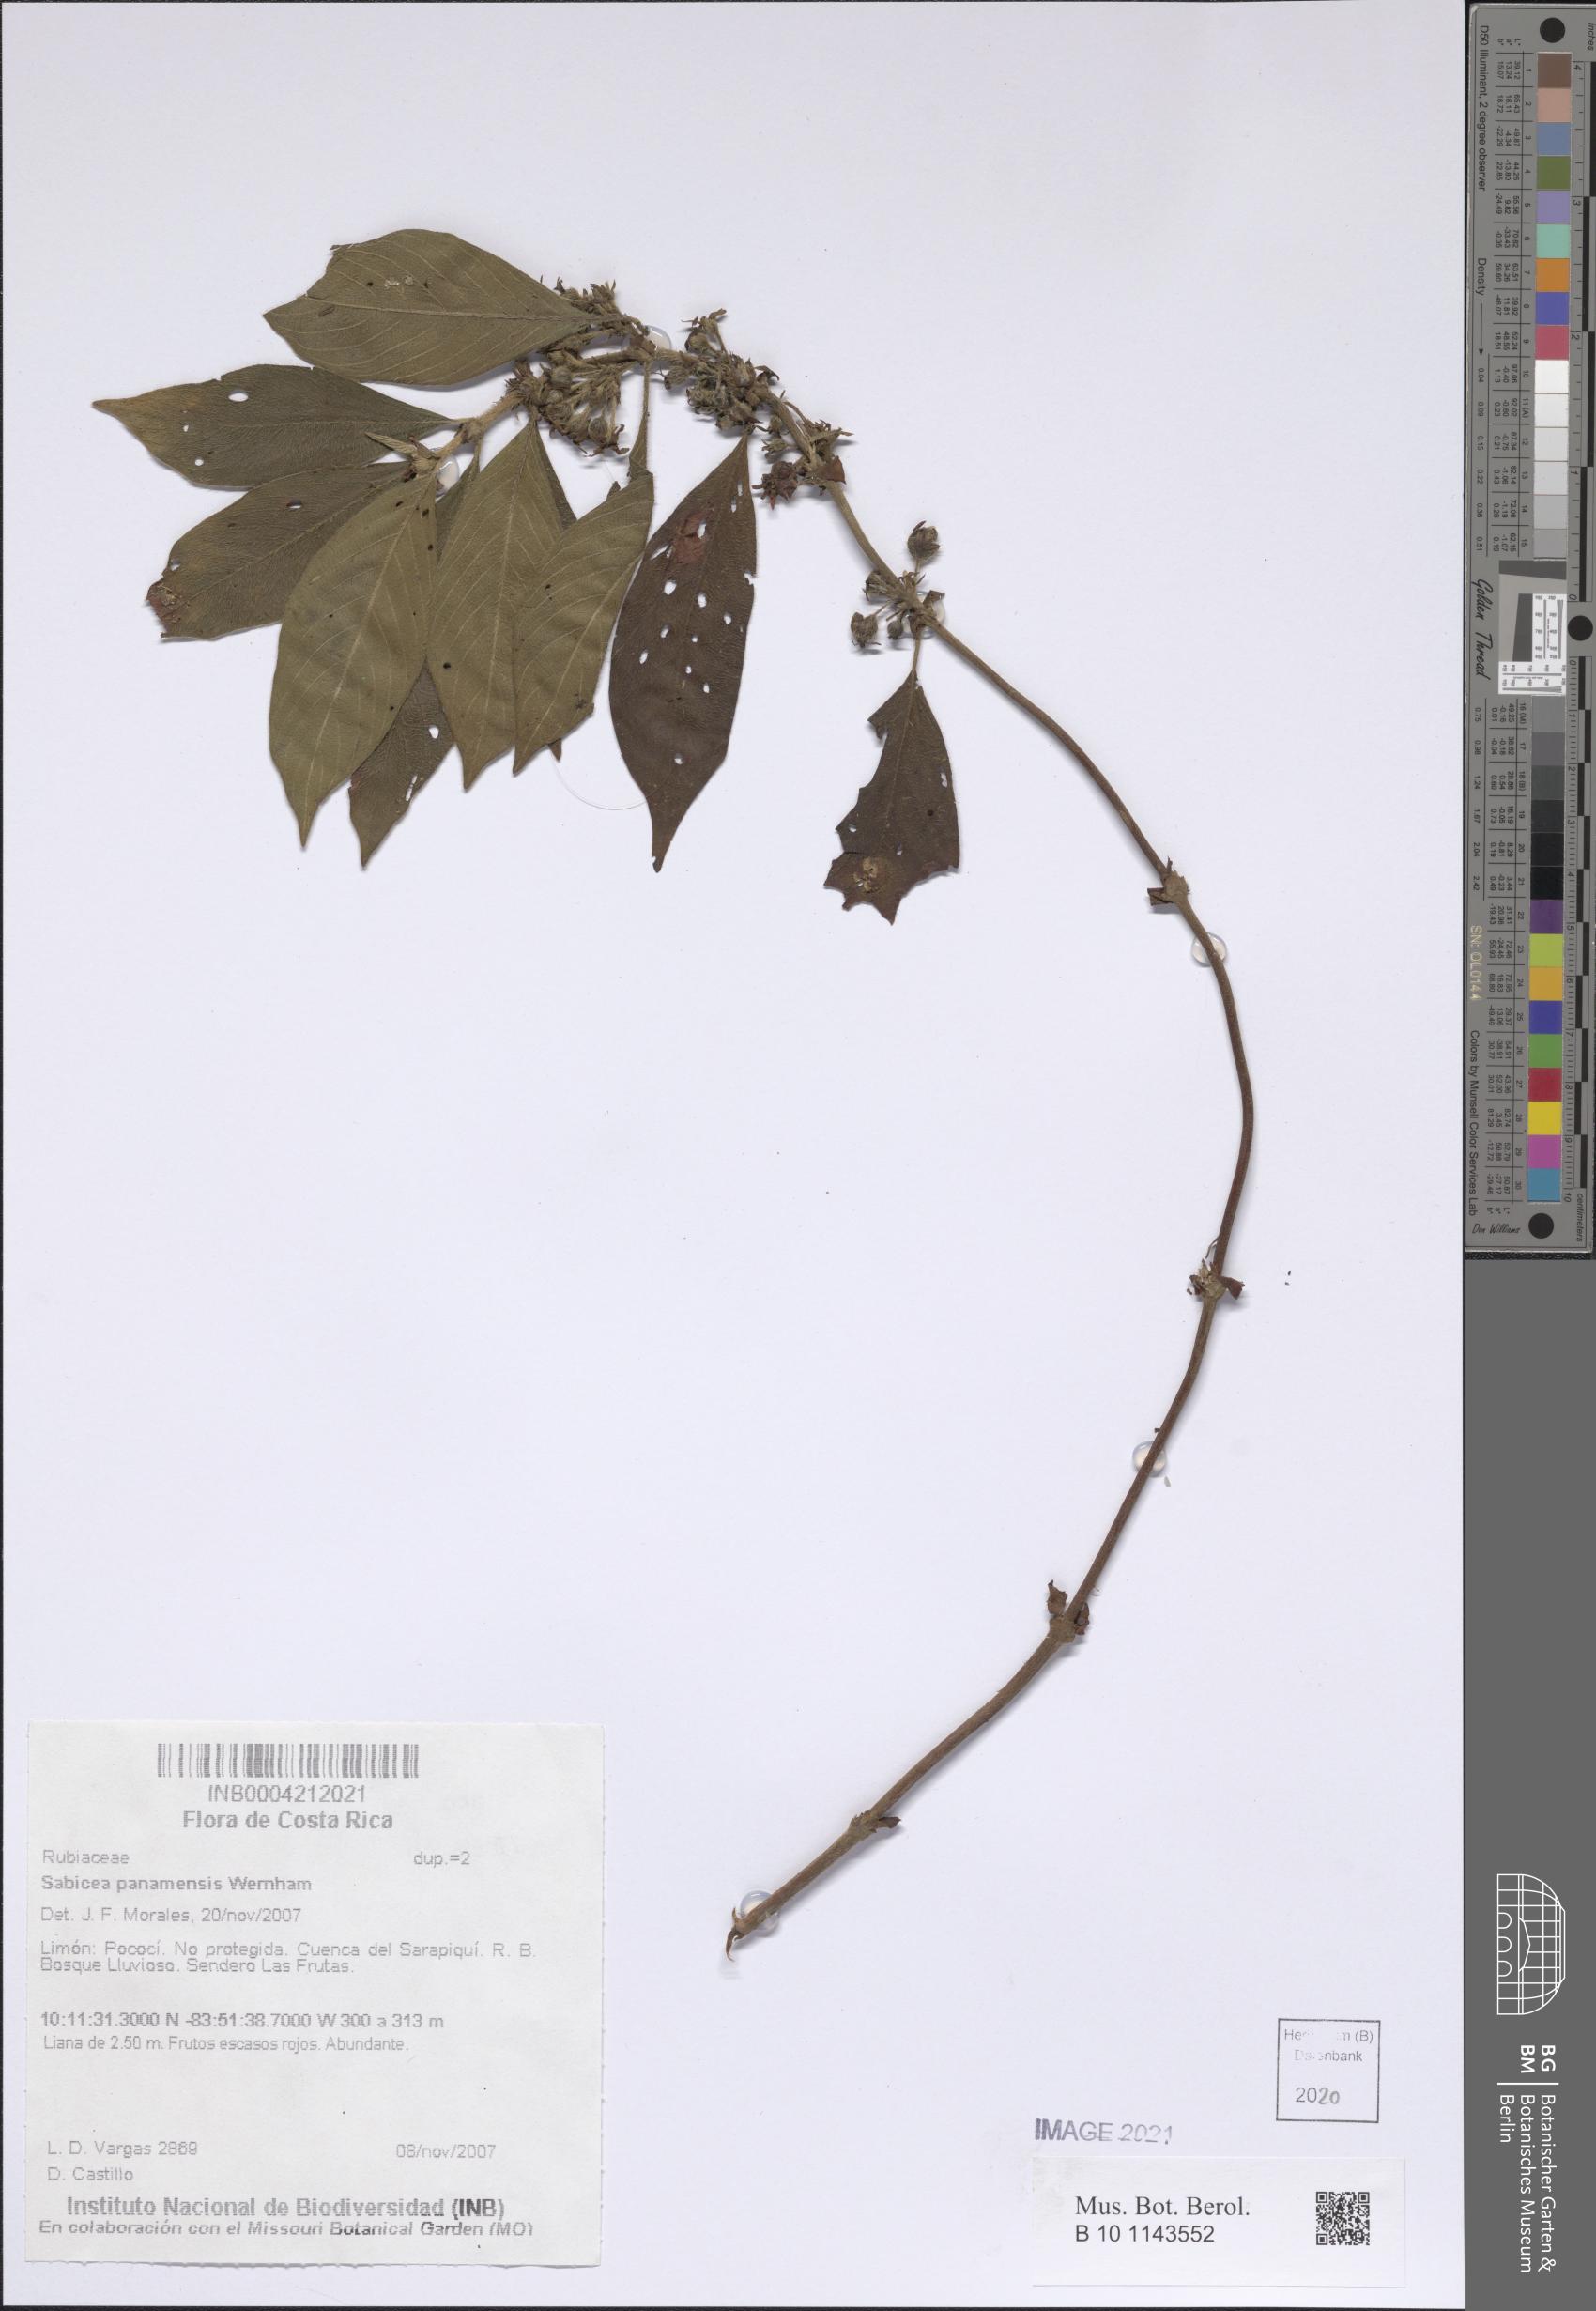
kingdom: Plantae
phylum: Tracheophyta
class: Magnoliopsida
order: Gentianales
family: Rubiaceae
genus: Sabicea
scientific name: Sabicea panamensis
